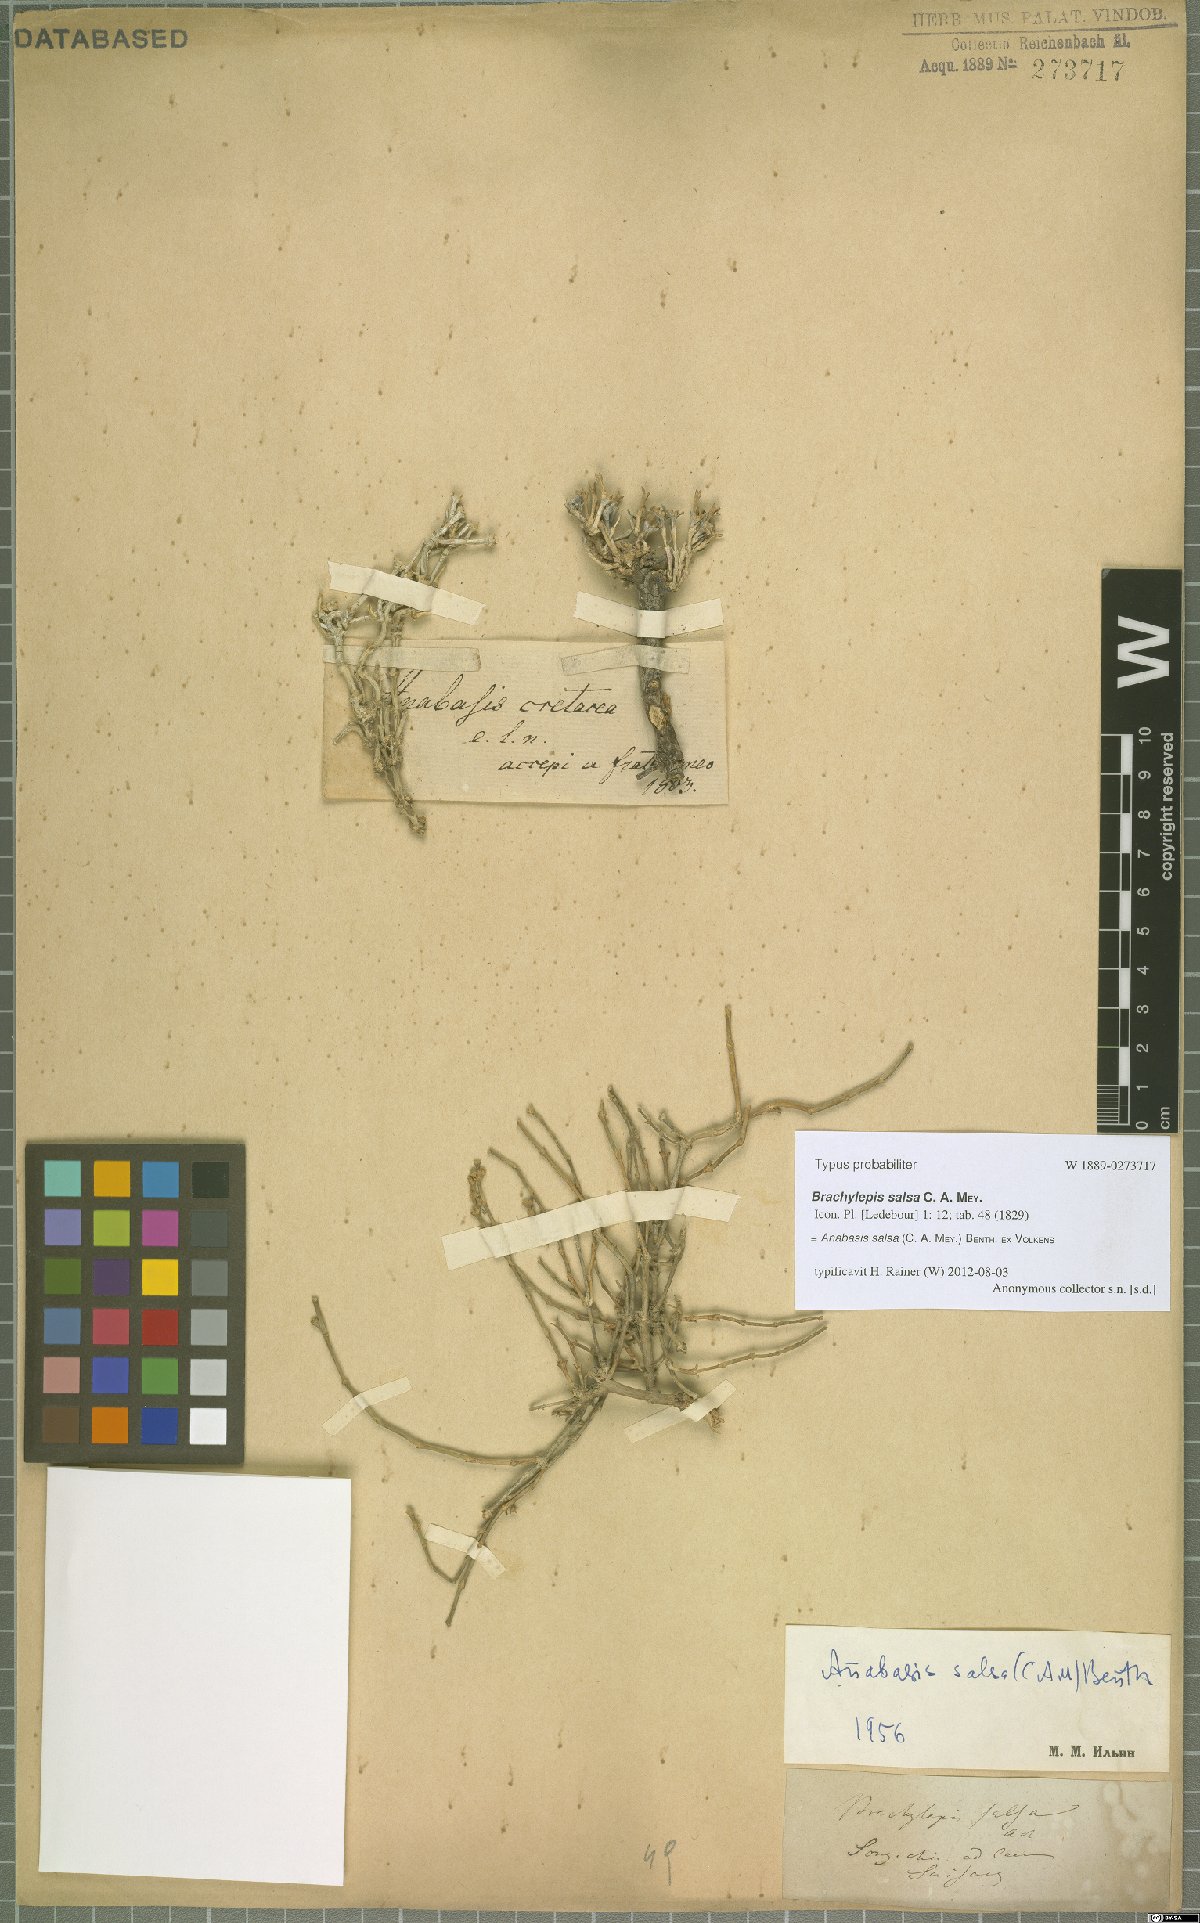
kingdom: Plantae
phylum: Tracheophyta
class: Magnoliopsida
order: Caryophyllales
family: Amaranthaceae
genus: Anabasis
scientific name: Anabasis salsa
